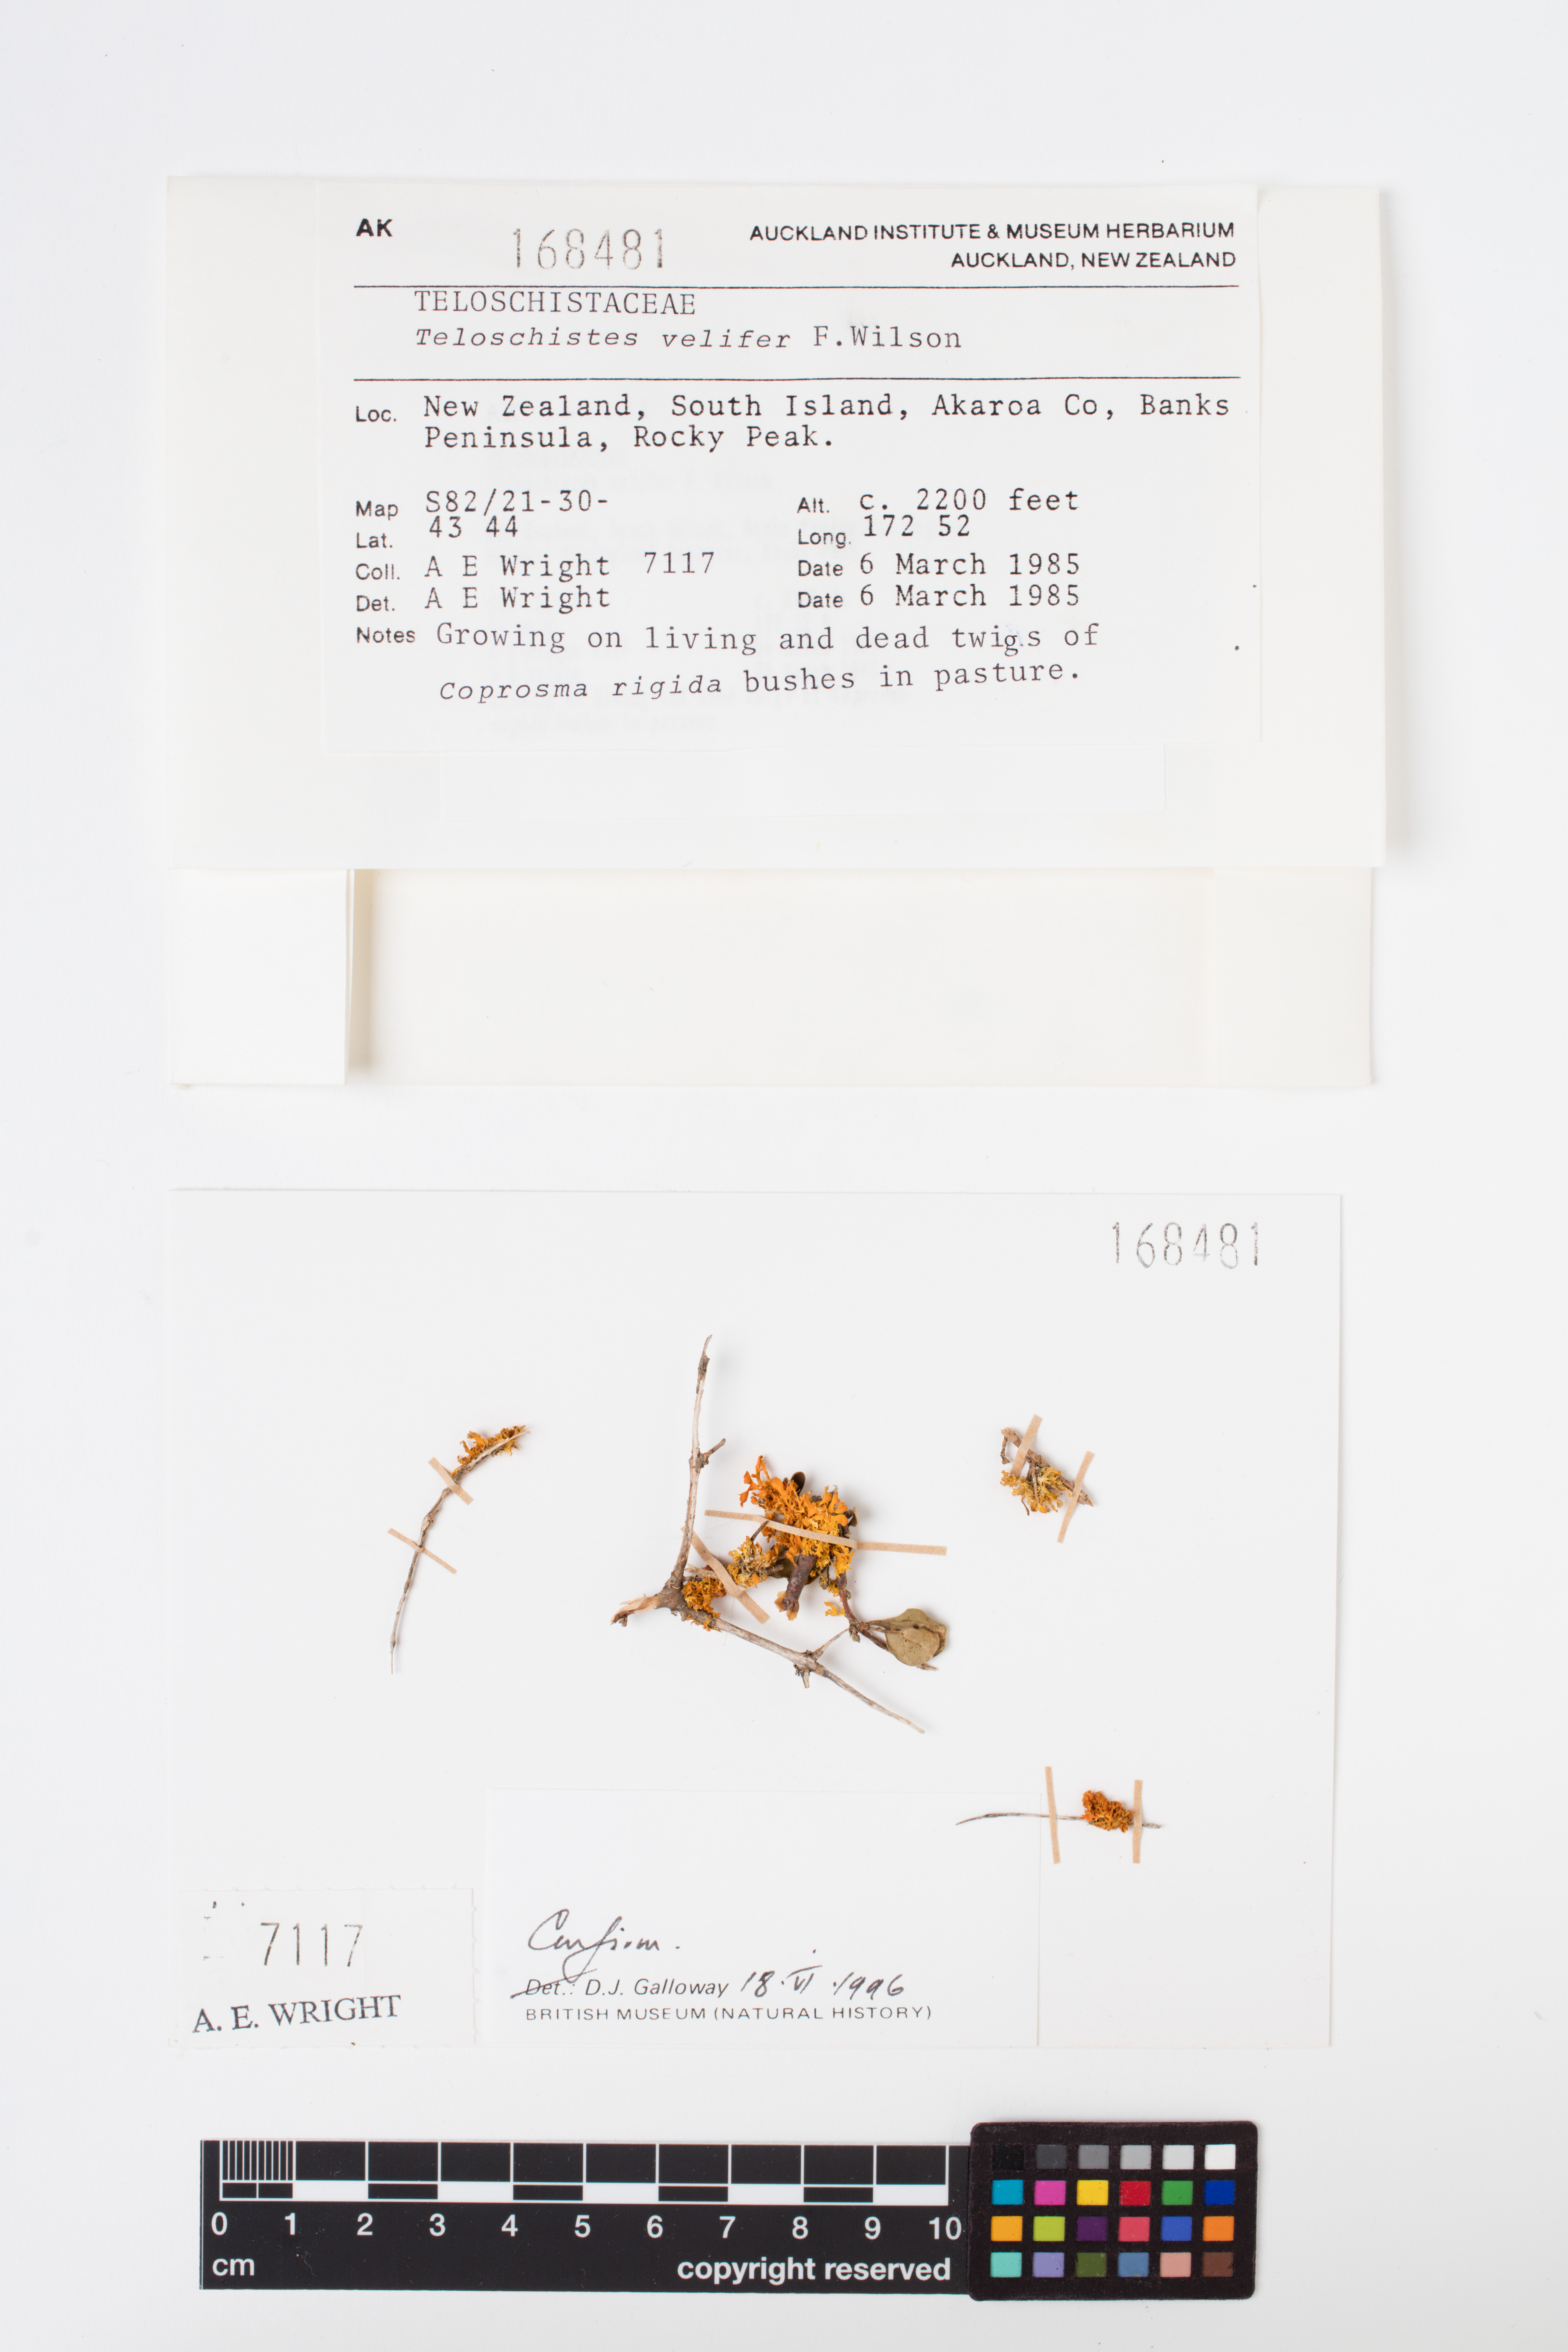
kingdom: Fungi
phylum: Ascomycota
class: Lecanoromycetes
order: Teloschistales
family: Teloschistaceae
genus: Teloschistes
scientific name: Teloschistes velifer
